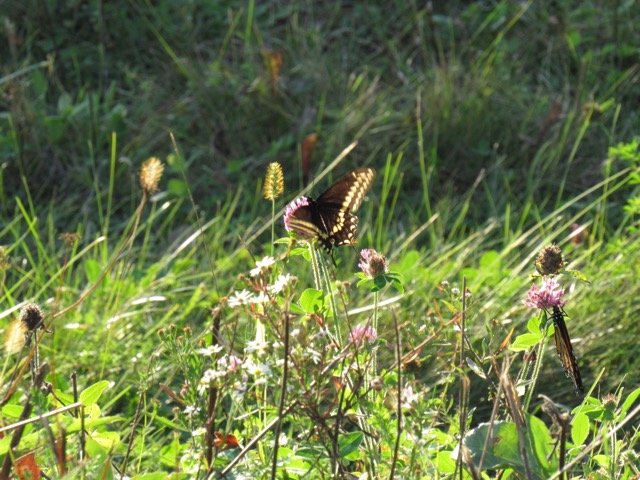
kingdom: Animalia
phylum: Arthropoda
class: Insecta
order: Lepidoptera
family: Papilionidae
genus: Papilio
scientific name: Papilio polyxenes
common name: Black Swallowtail
